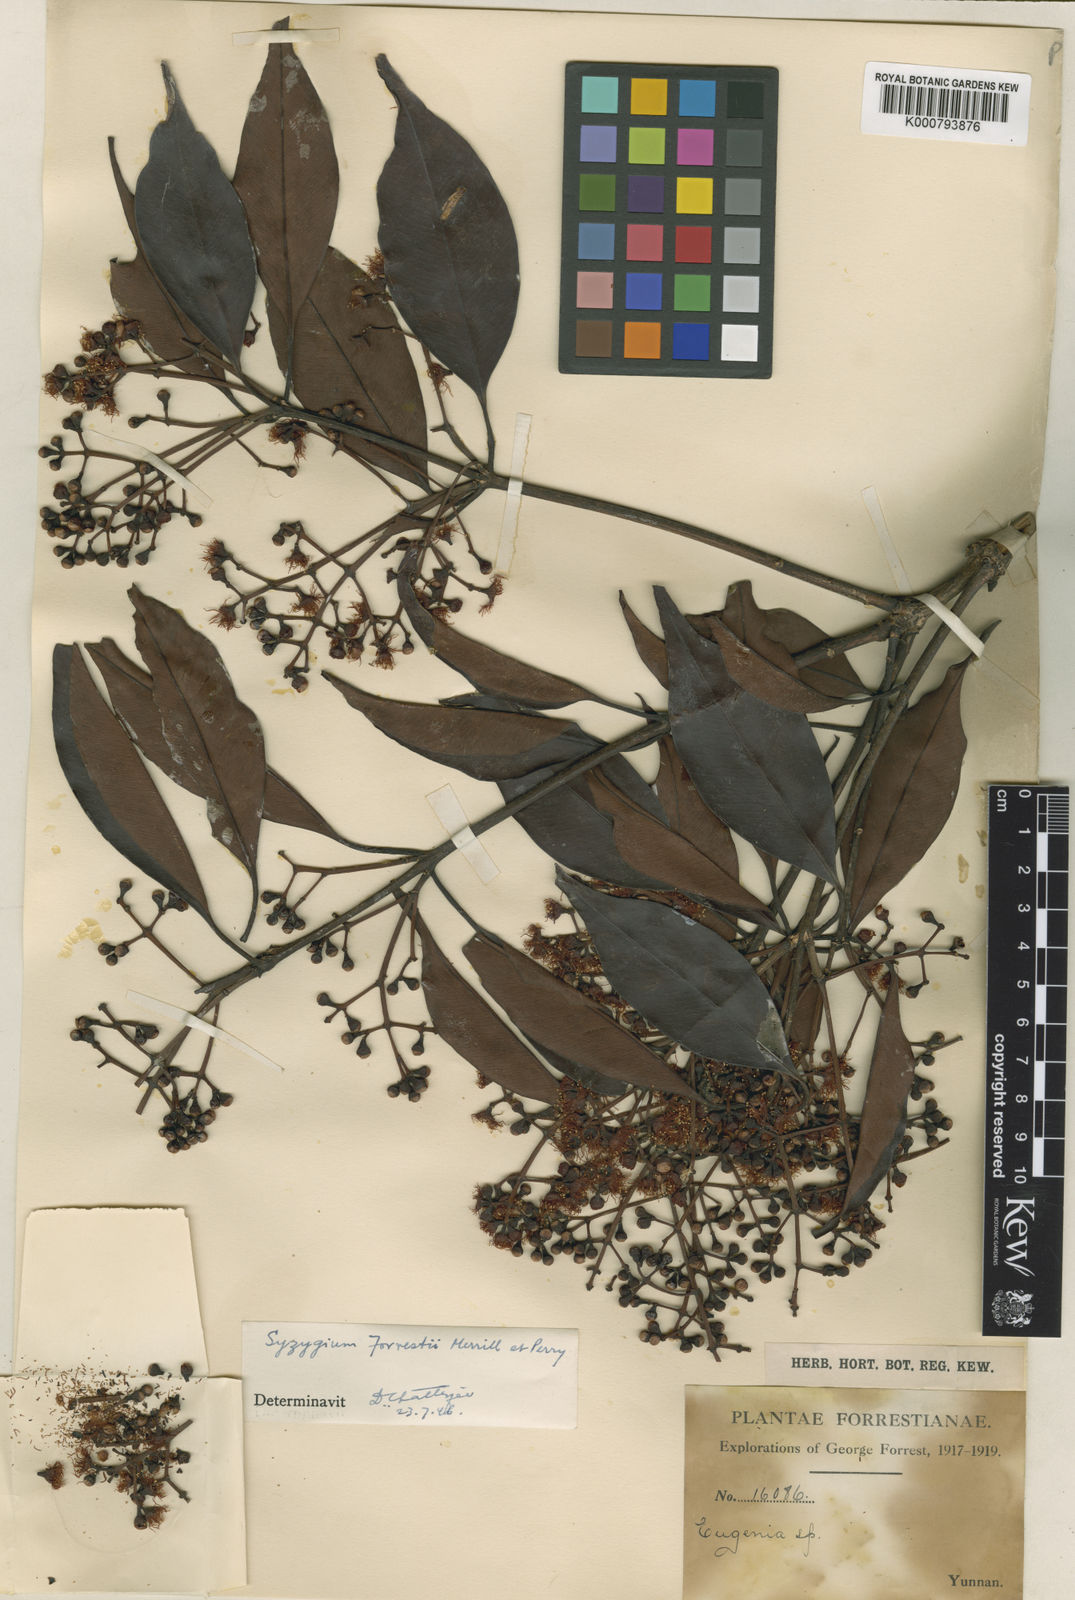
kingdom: Plantae
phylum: Tracheophyta
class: Magnoliopsida
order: Myrtales
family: Myrtaceae
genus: Syzygium
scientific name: Syzygium forrestii
